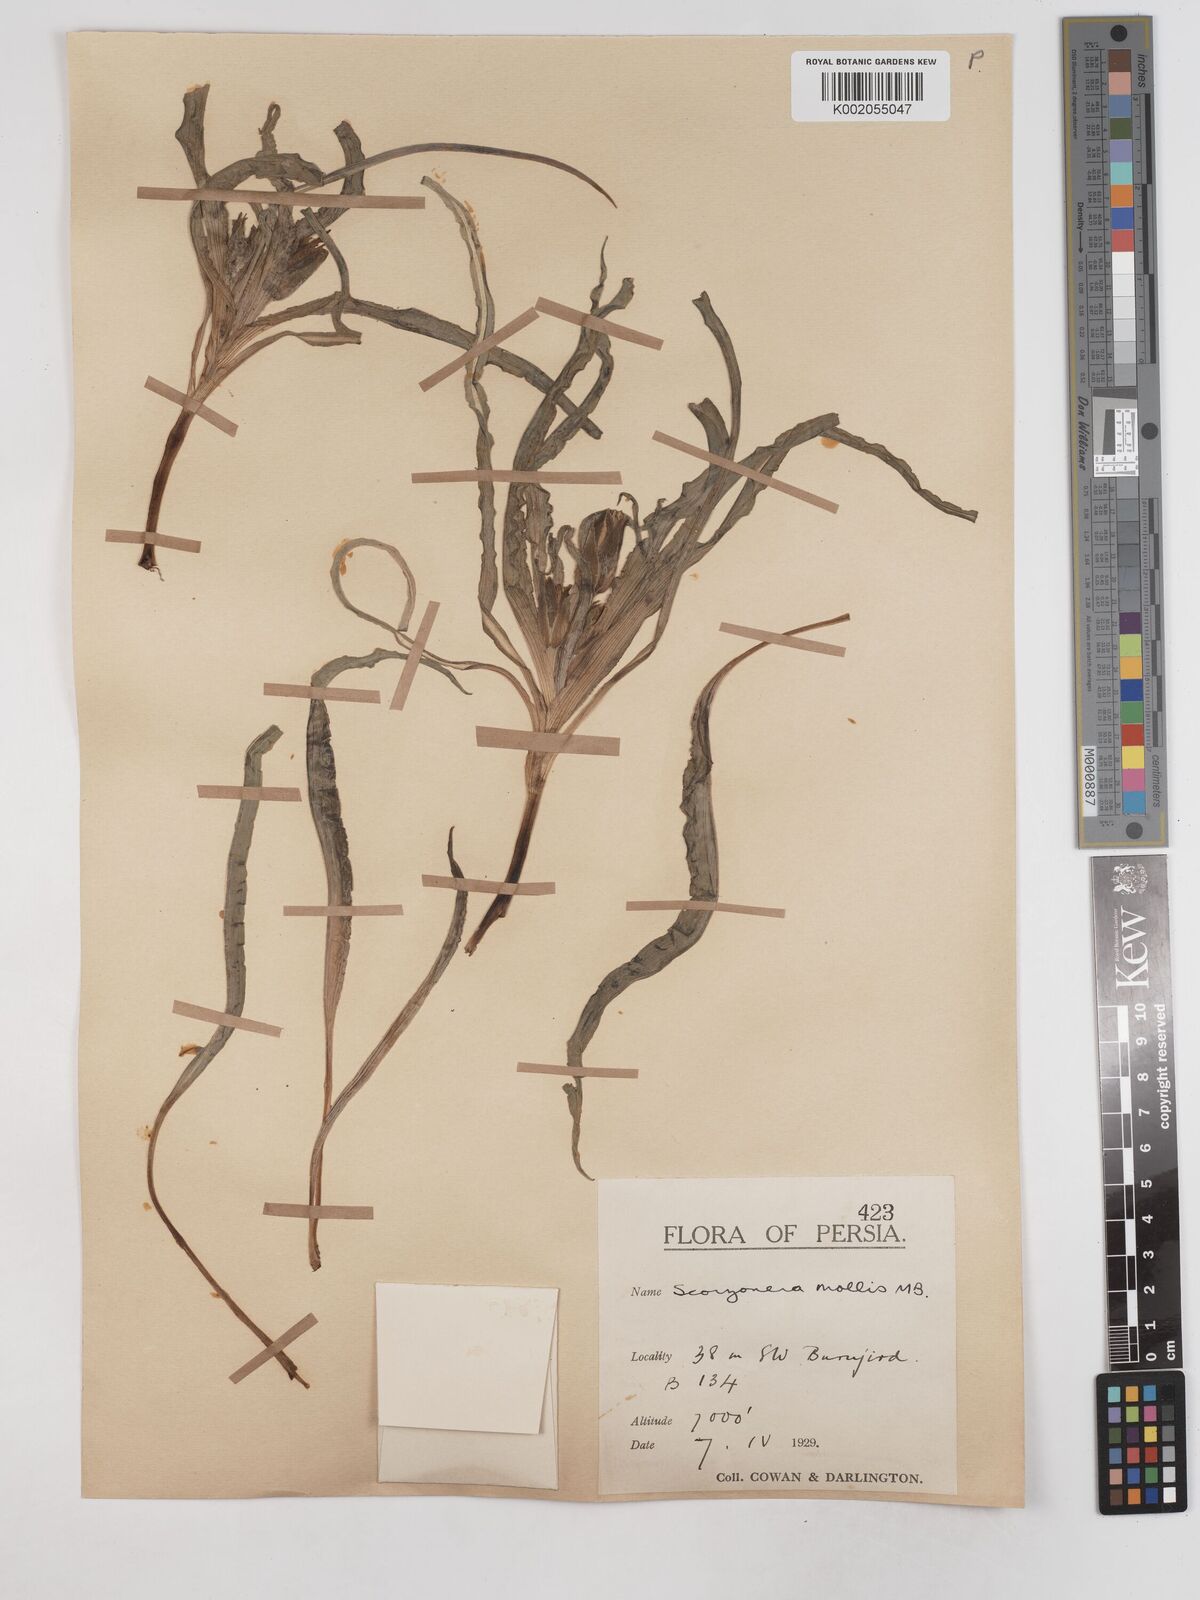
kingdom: Plantae
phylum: Tracheophyta
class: Magnoliopsida
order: Asterales
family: Asteraceae
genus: Candollea
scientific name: Candollea mollis
